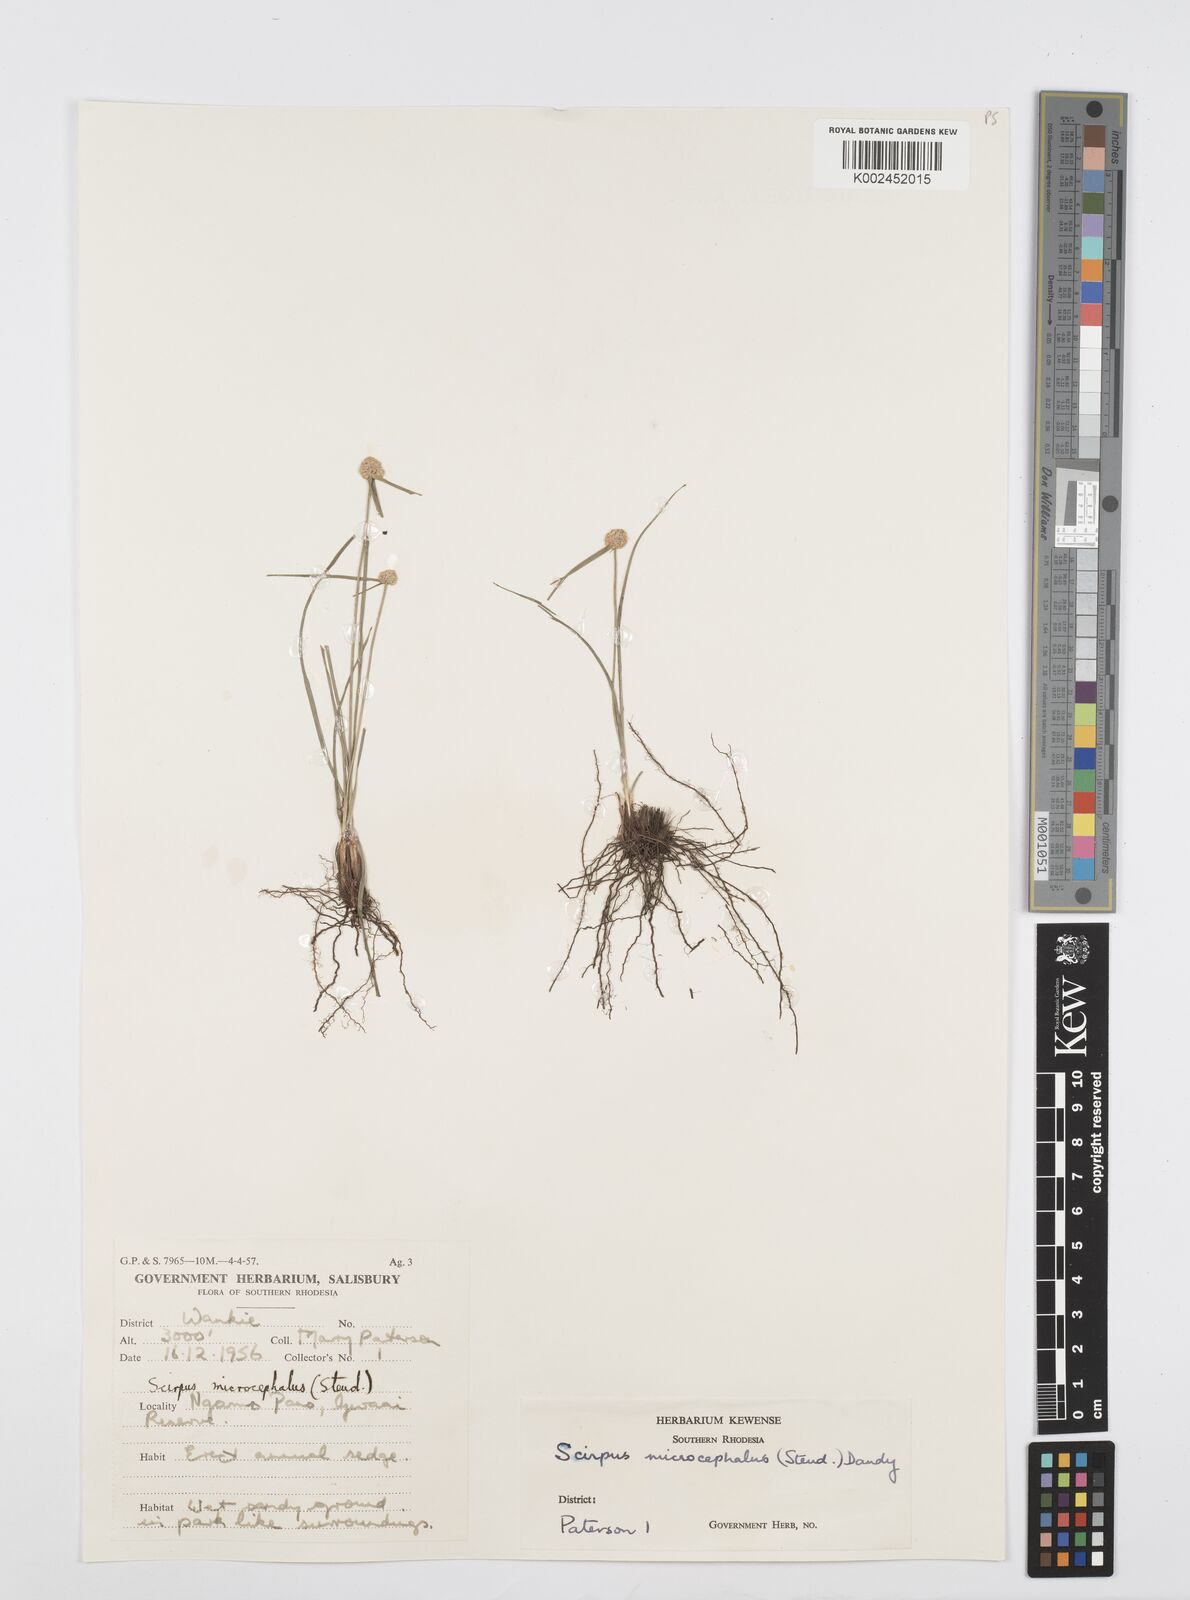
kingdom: Plantae
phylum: Tracheophyta
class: Liliopsida
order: Poales
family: Cyperaceae
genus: Cyperus
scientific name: Cyperus conglobatus
